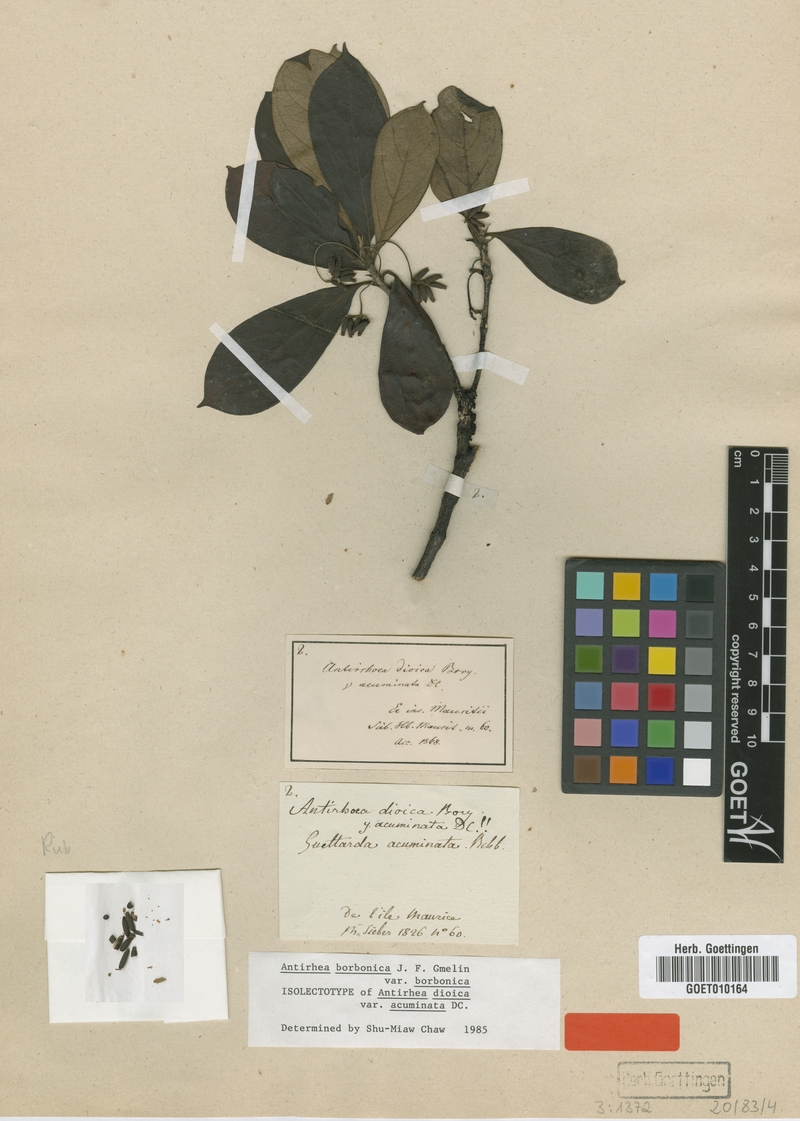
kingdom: Plantae
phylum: Tracheophyta
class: Magnoliopsida
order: Gentianales
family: Rubiaceae
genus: Antirhea
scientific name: Antirhea borbonica
